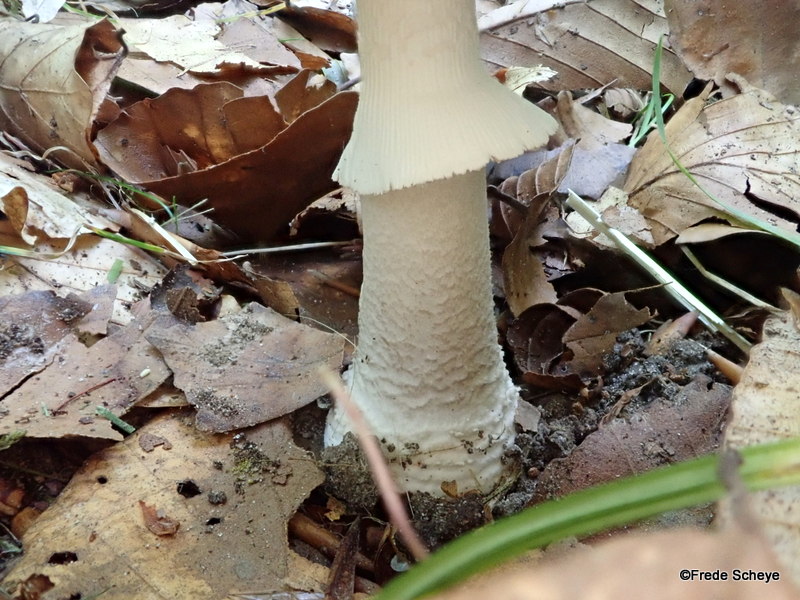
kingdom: Fungi
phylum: Basidiomycota
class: Agaricomycetes
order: Agaricales
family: Amanitaceae
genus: Amanita
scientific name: Amanita
